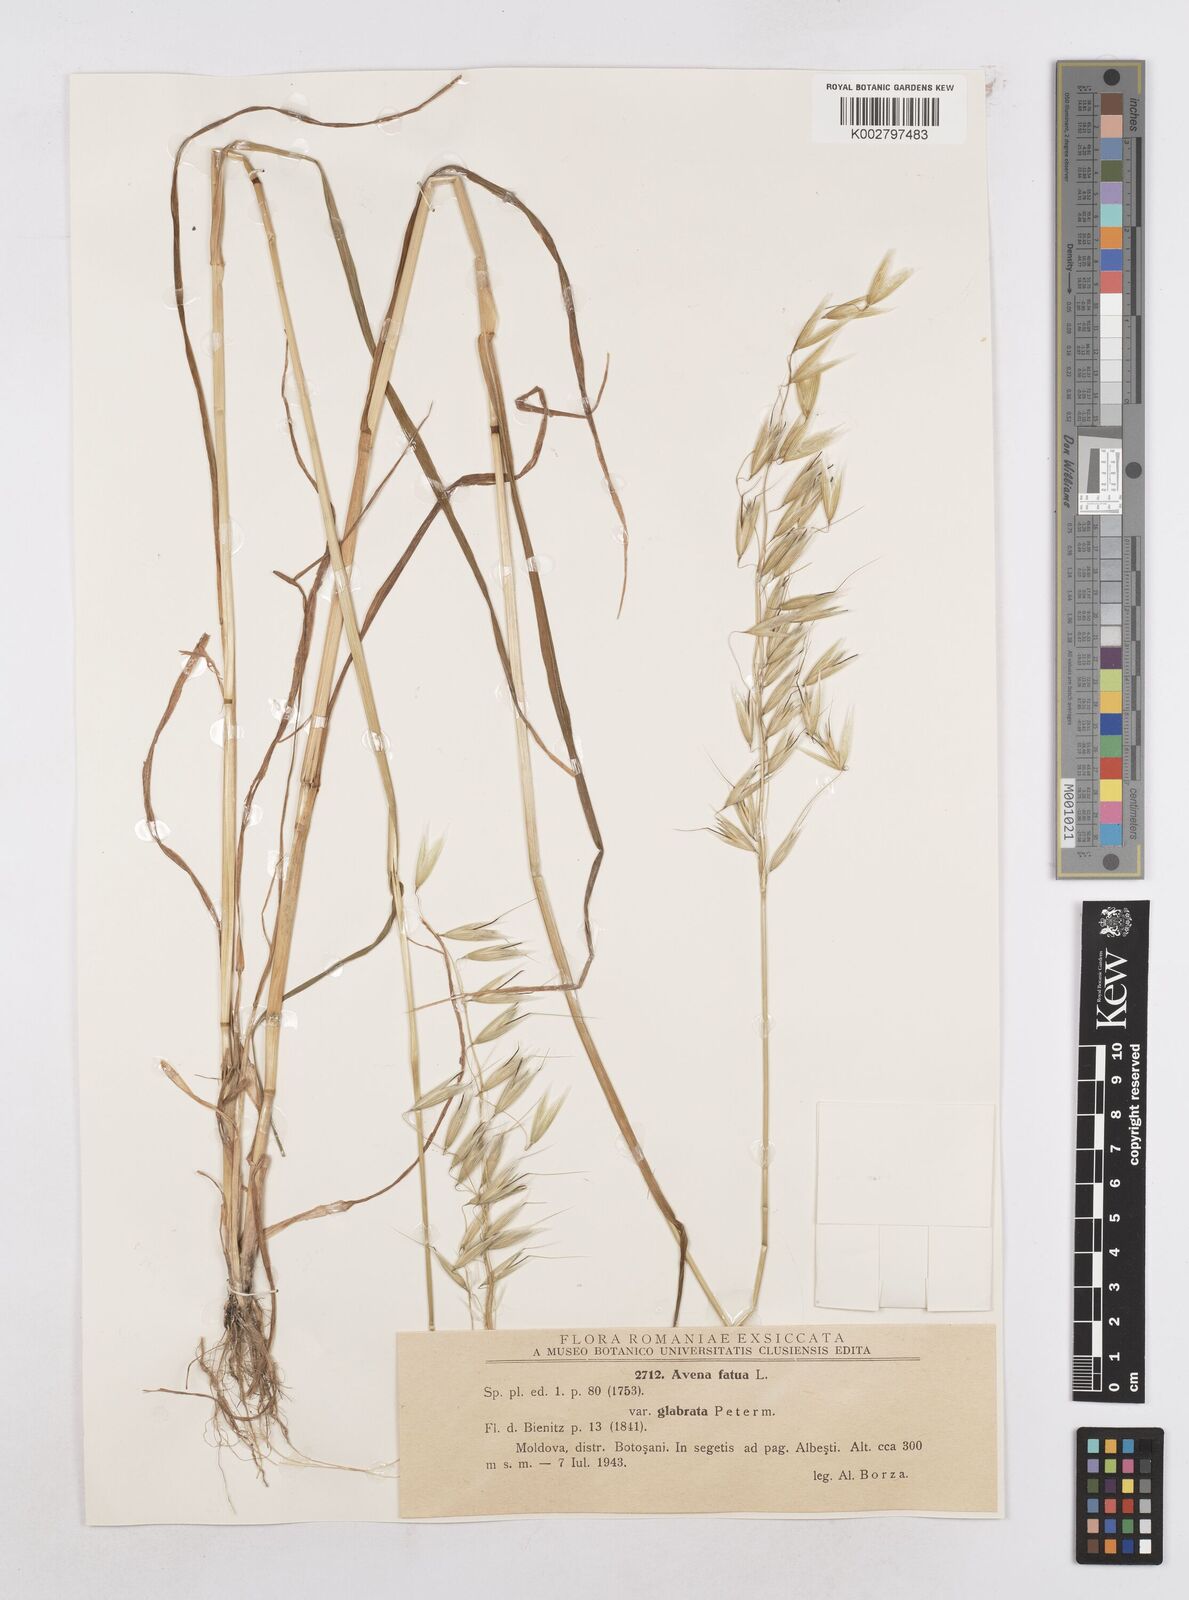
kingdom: Plantae
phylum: Tracheophyta
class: Liliopsida
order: Poales
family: Poaceae
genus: Avena
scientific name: Avena fatua
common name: Wild oat
